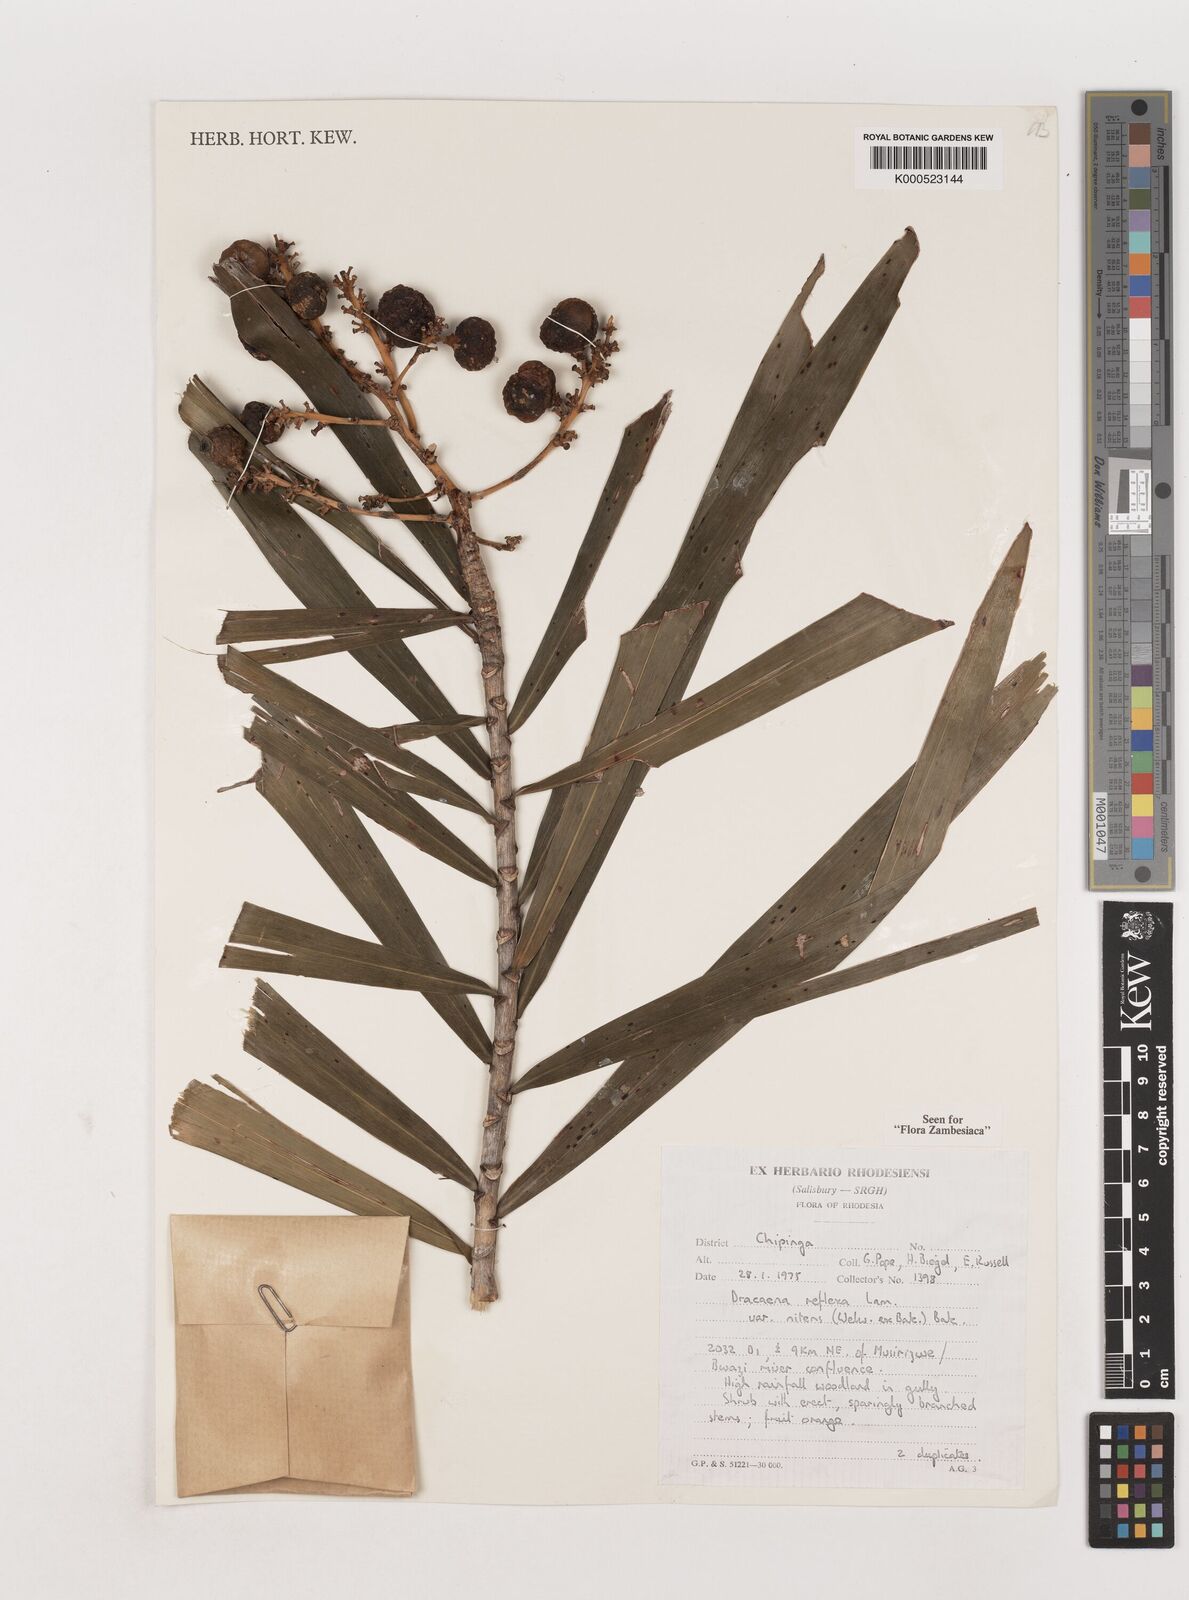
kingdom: Plantae
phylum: Tracheophyta
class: Liliopsida
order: Asparagales
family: Asparagaceae
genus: Dracaena
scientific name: Dracaena mannii
